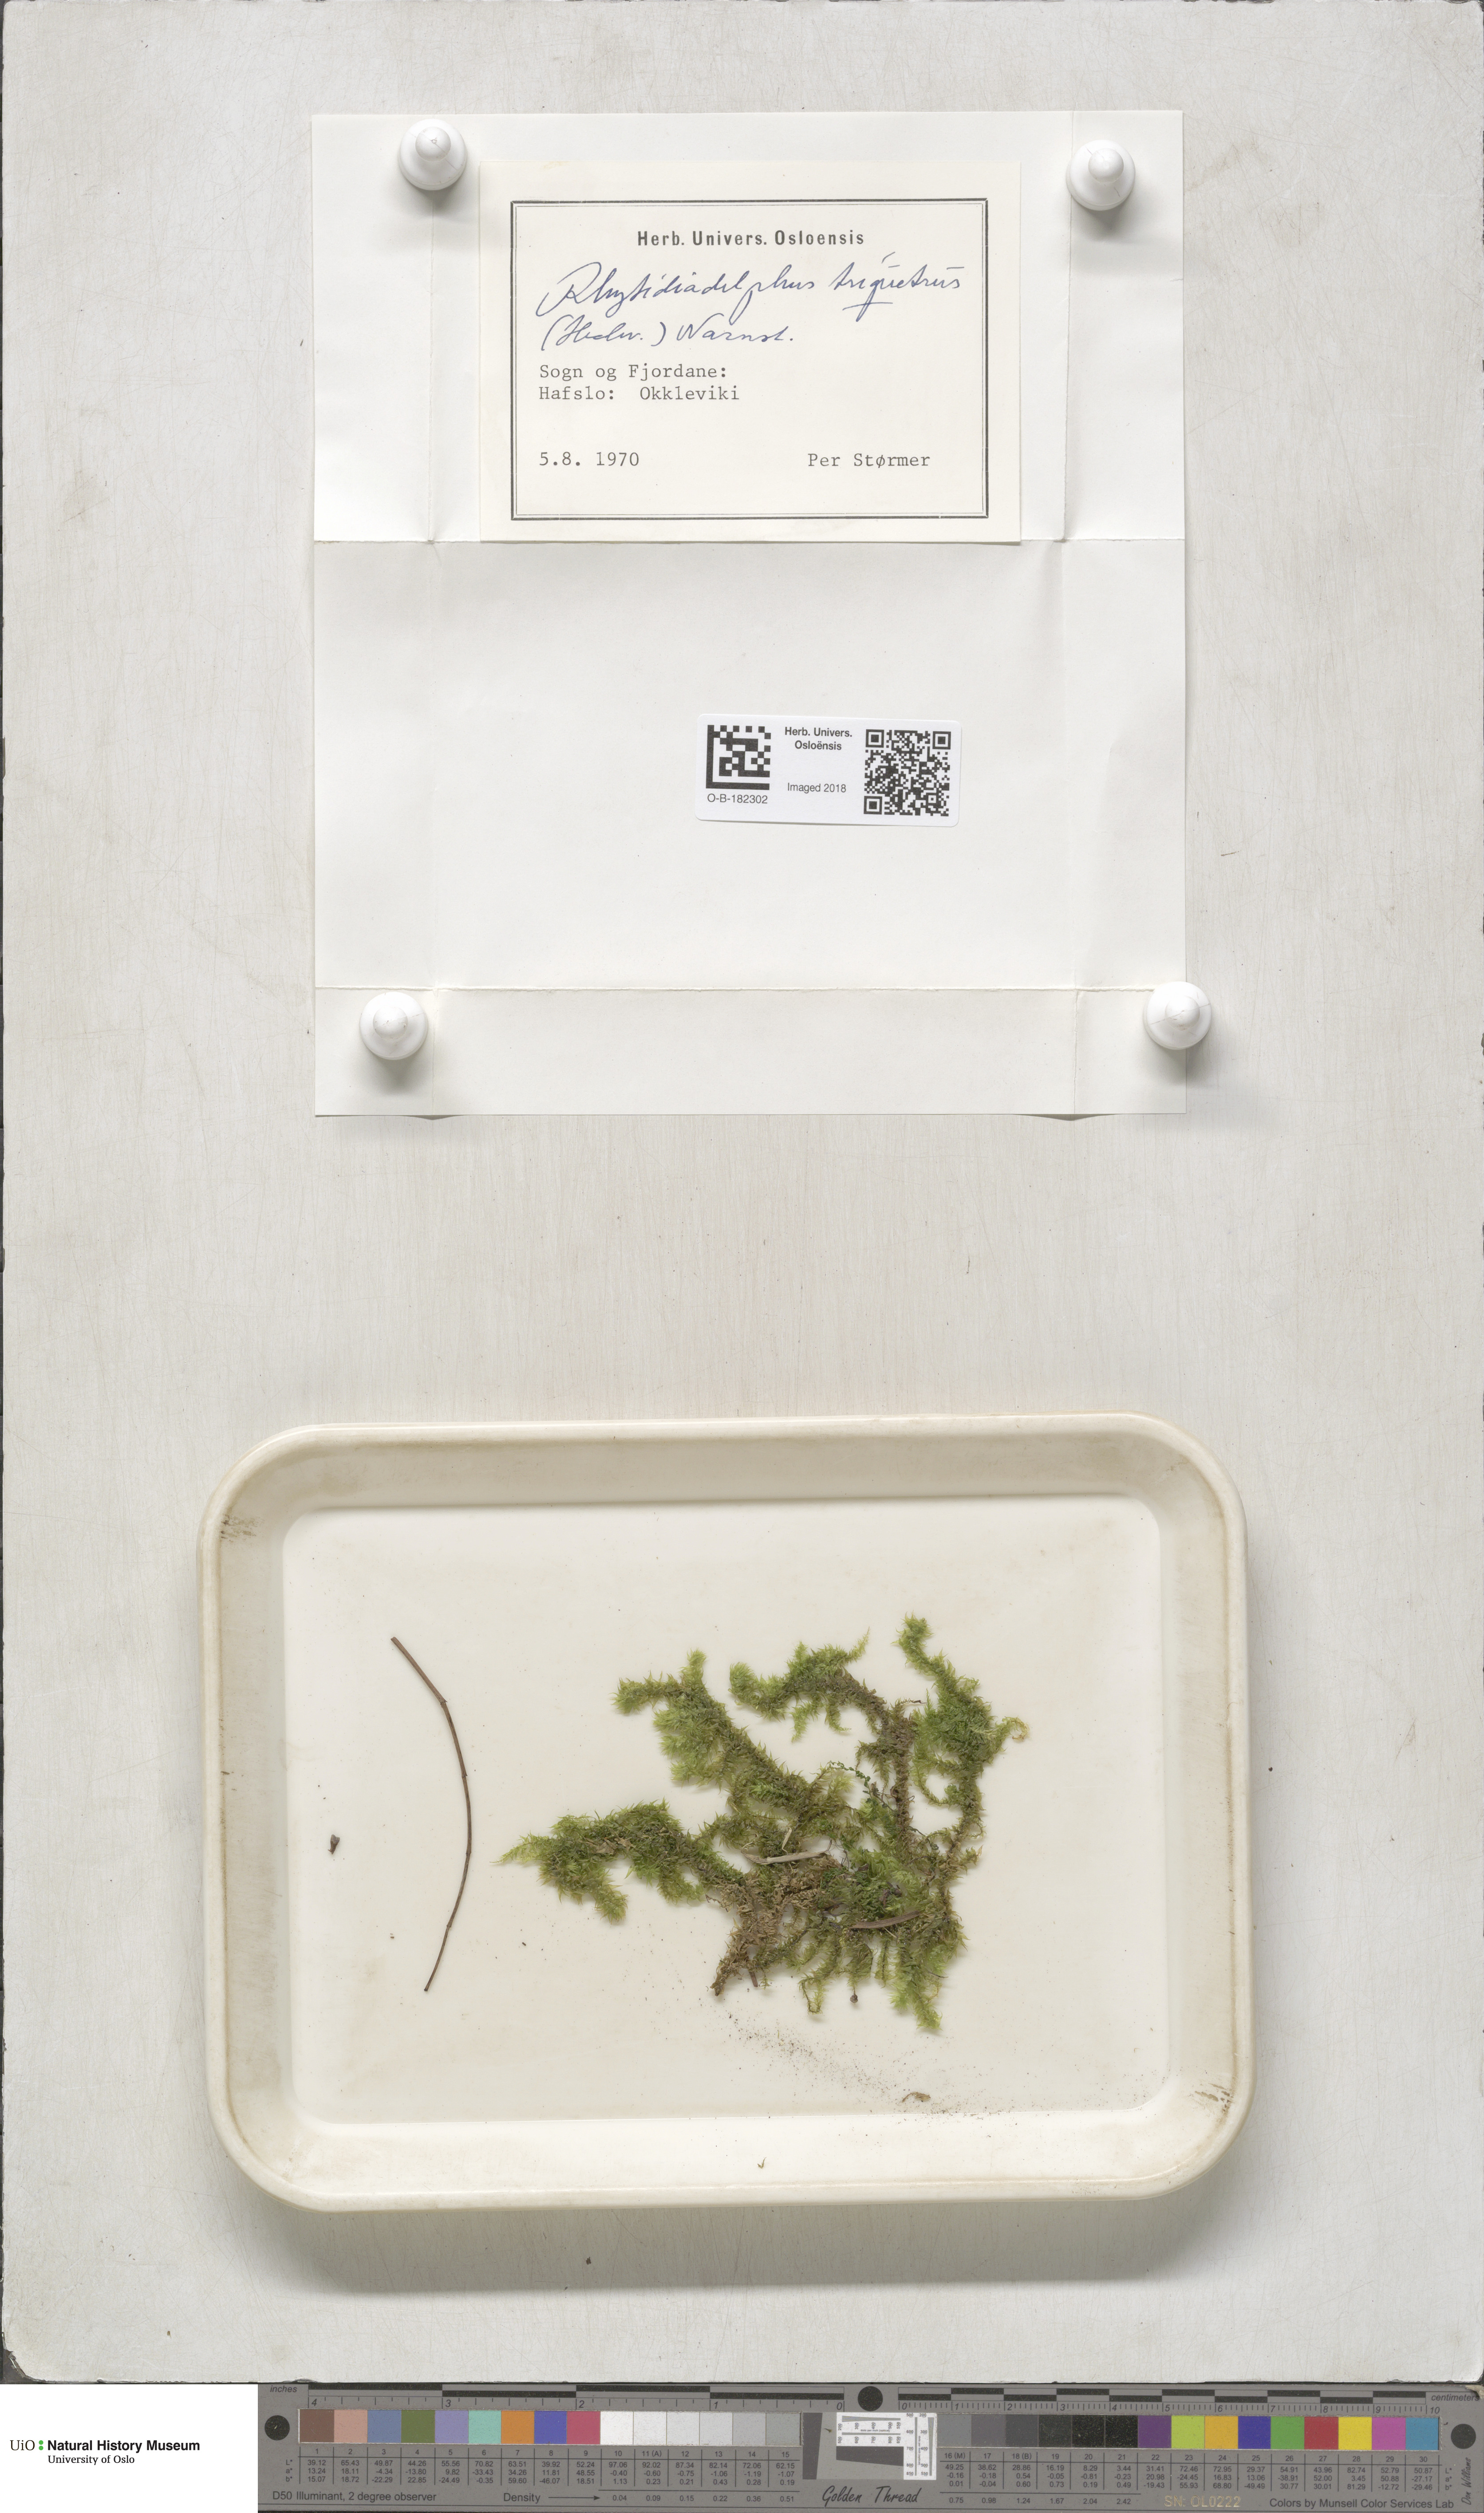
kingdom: Plantae
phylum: Bryophyta
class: Bryopsida
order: Hypnales
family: Hylocomiaceae
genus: Hylocomiadelphus
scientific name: Hylocomiadelphus triquetrus
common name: Rough goose neck moss
